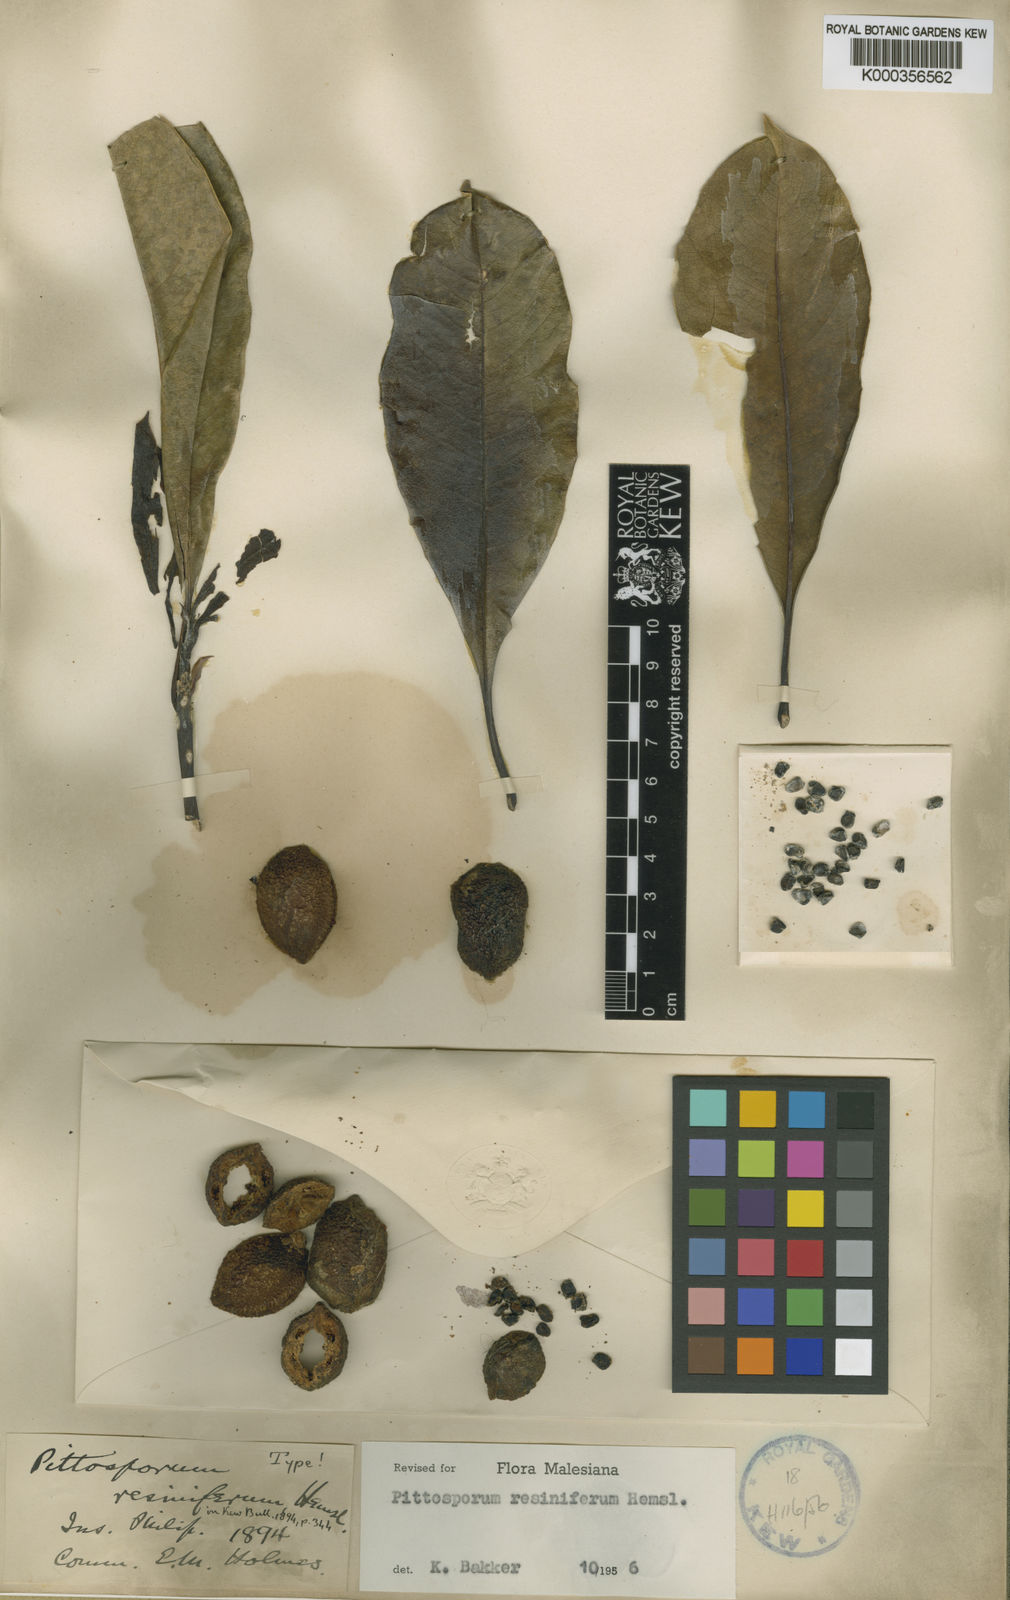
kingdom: Plantae
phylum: Tracheophyta
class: Magnoliopsida
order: Apiales
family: Pittosporaceae
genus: Pittosporum
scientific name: Pittosporum resiniferum
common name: Petroleum-nut
